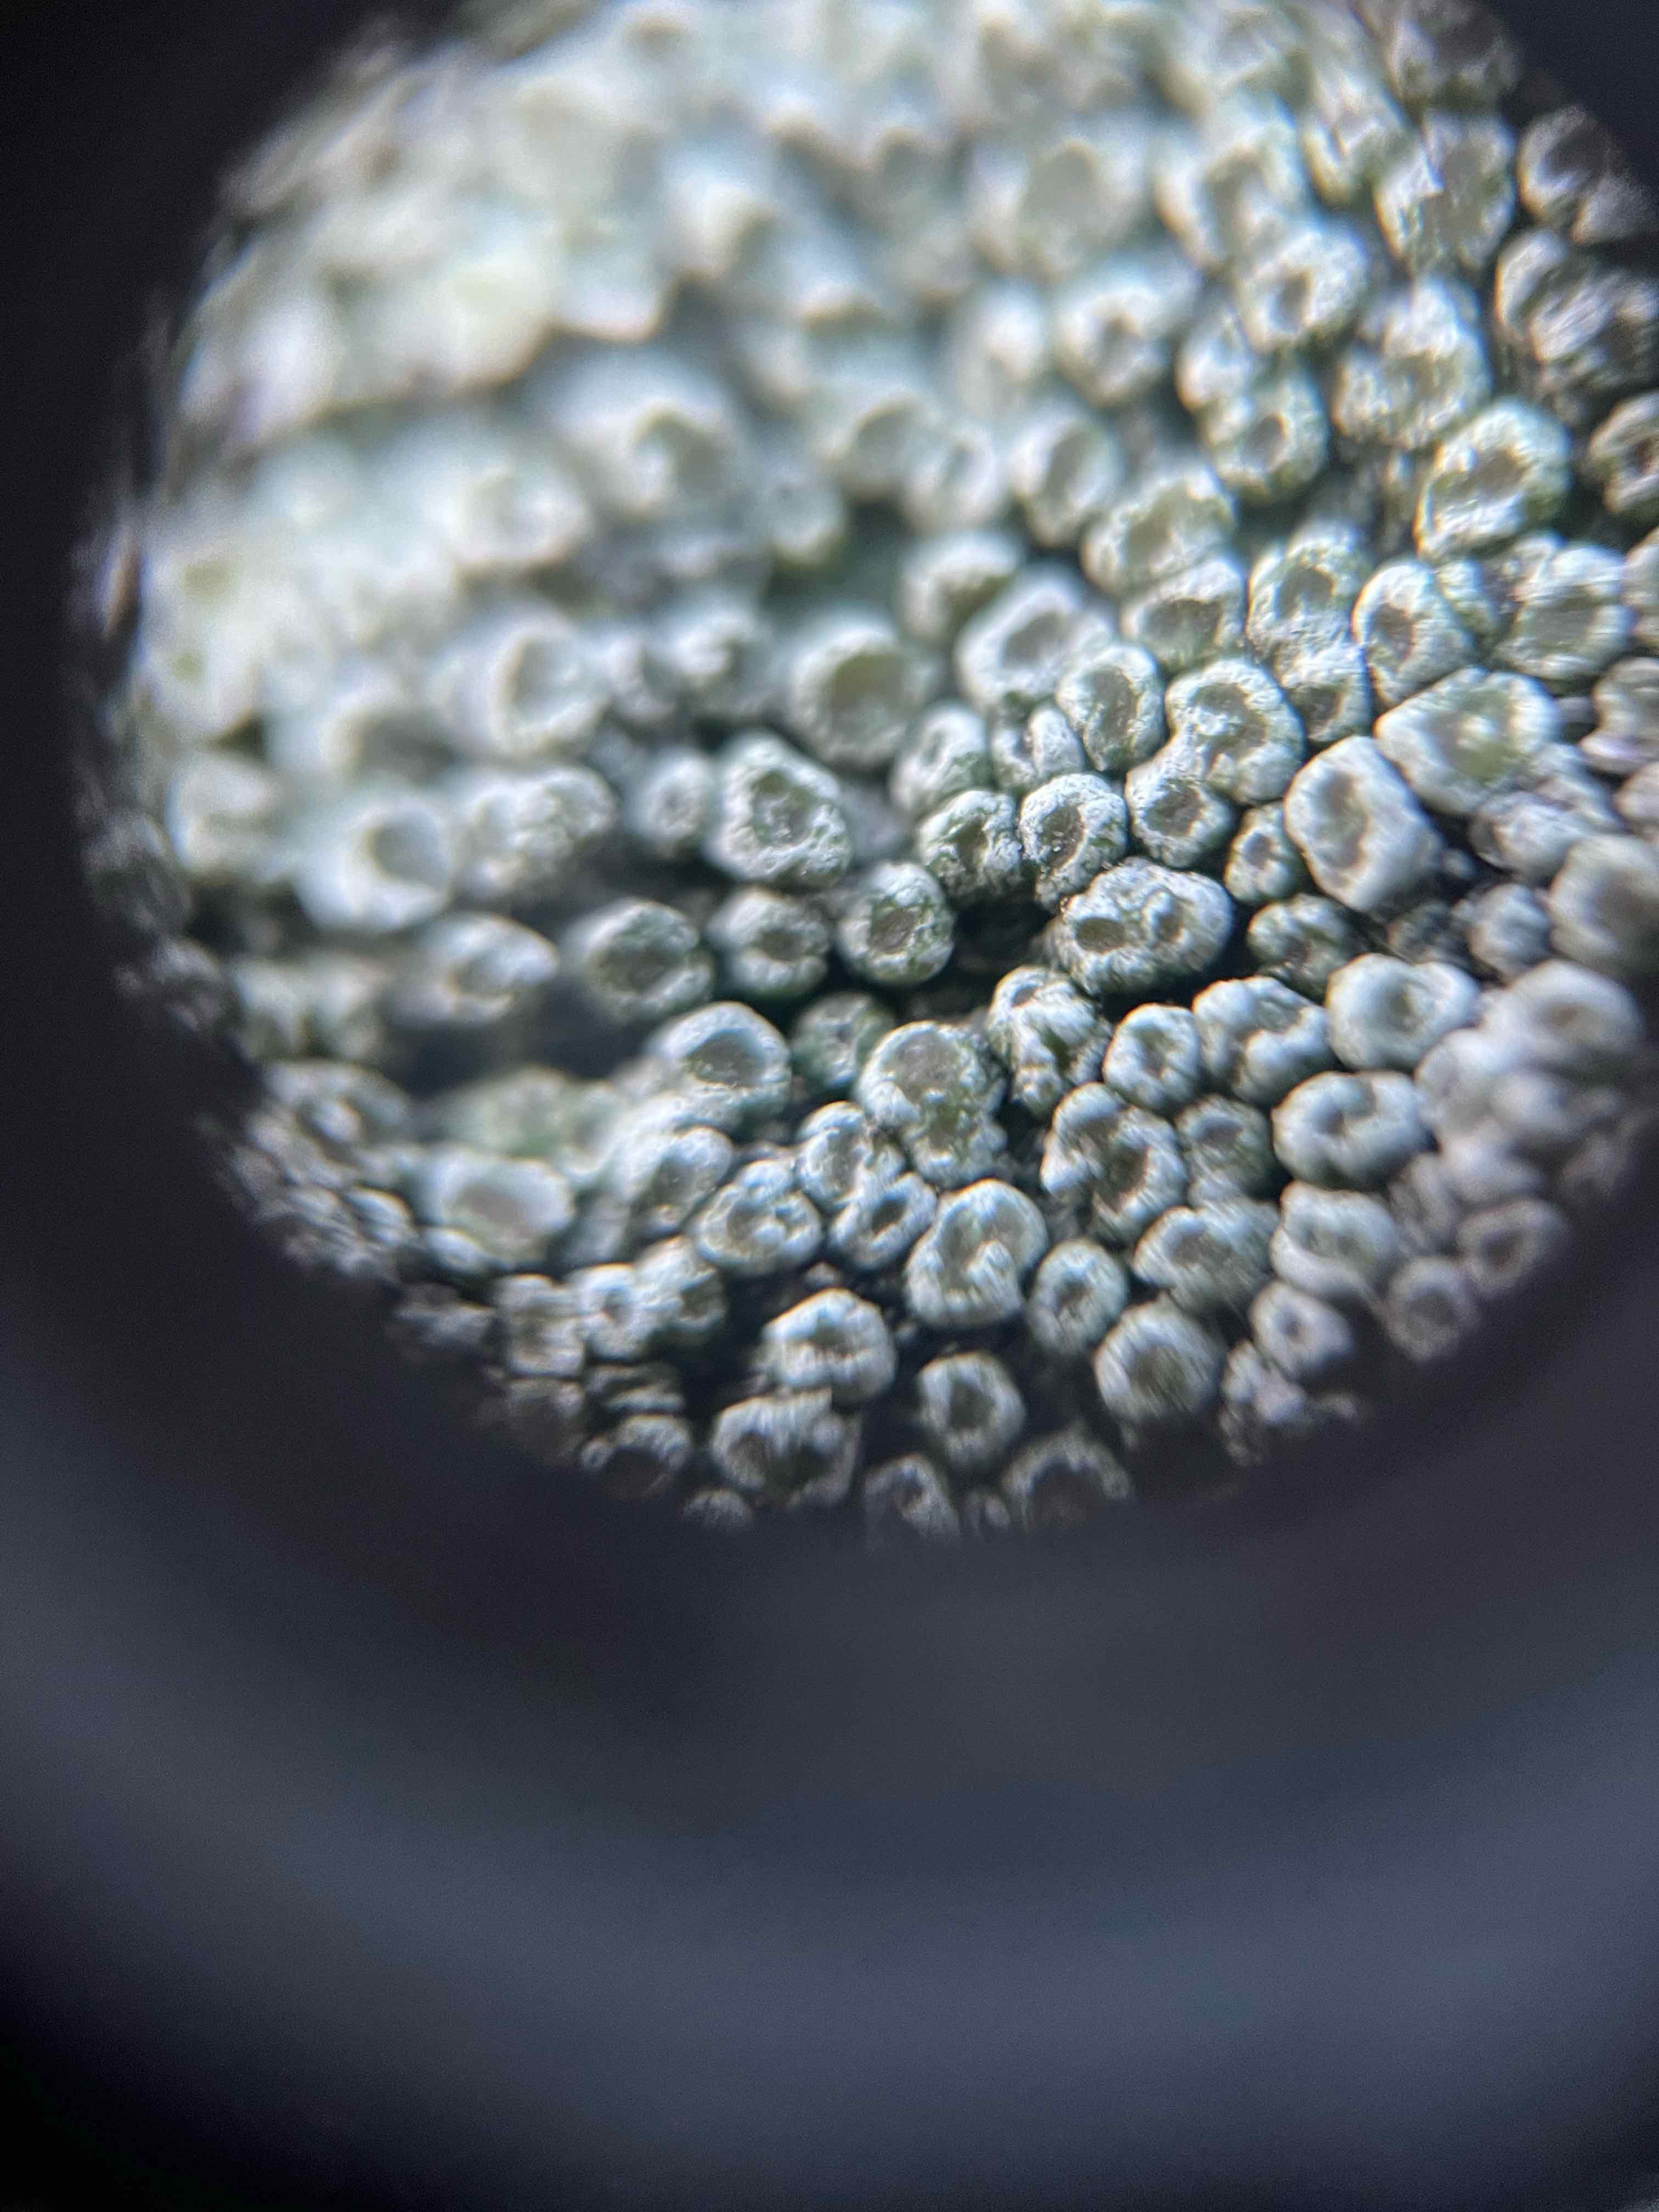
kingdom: Fungi
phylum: Ascomycota
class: Lecanoromycetes
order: Pertusariales
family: Pertusariaceae
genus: Pertusaria
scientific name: Pertusaria hymenea
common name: åben prikvortelav
